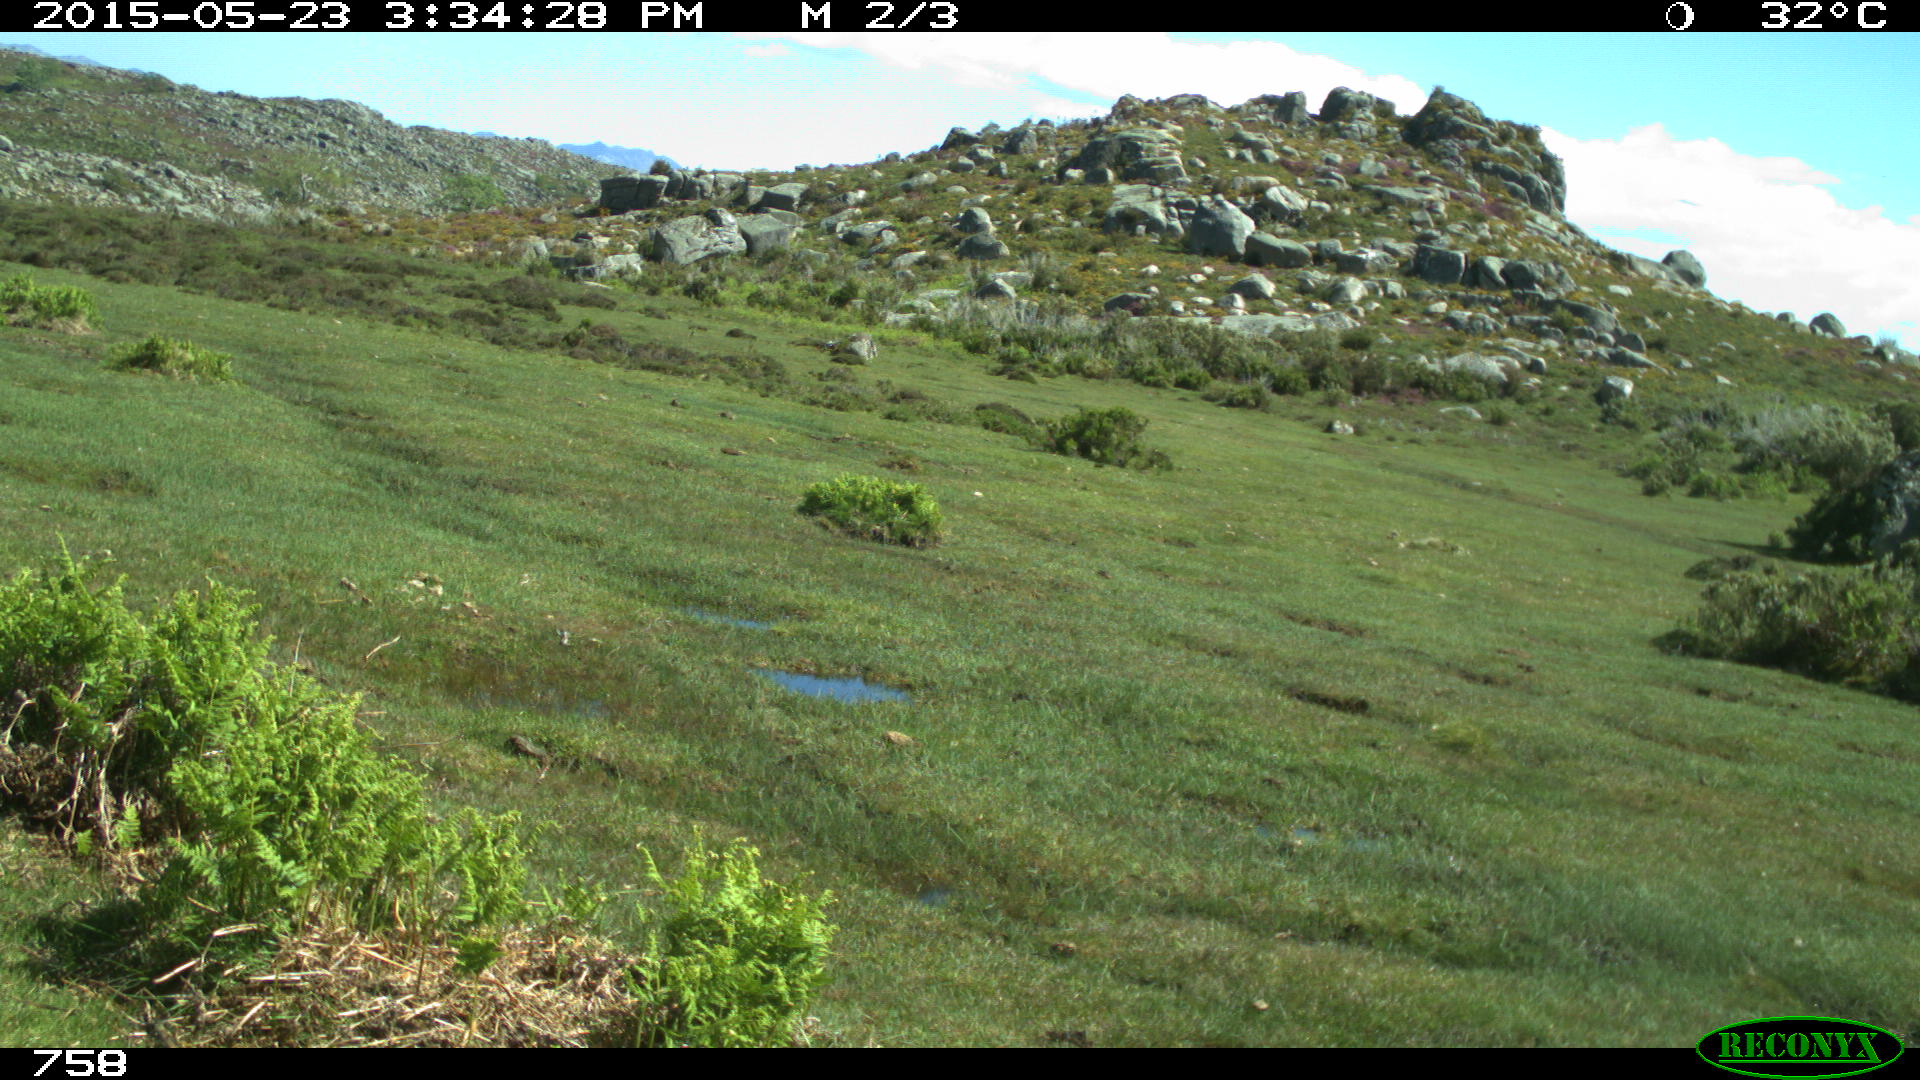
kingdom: Animalia
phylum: Chordata
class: Mammalia
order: Perissodactyla
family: Equidae
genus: Equus
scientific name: Equus caballus
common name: Horse
